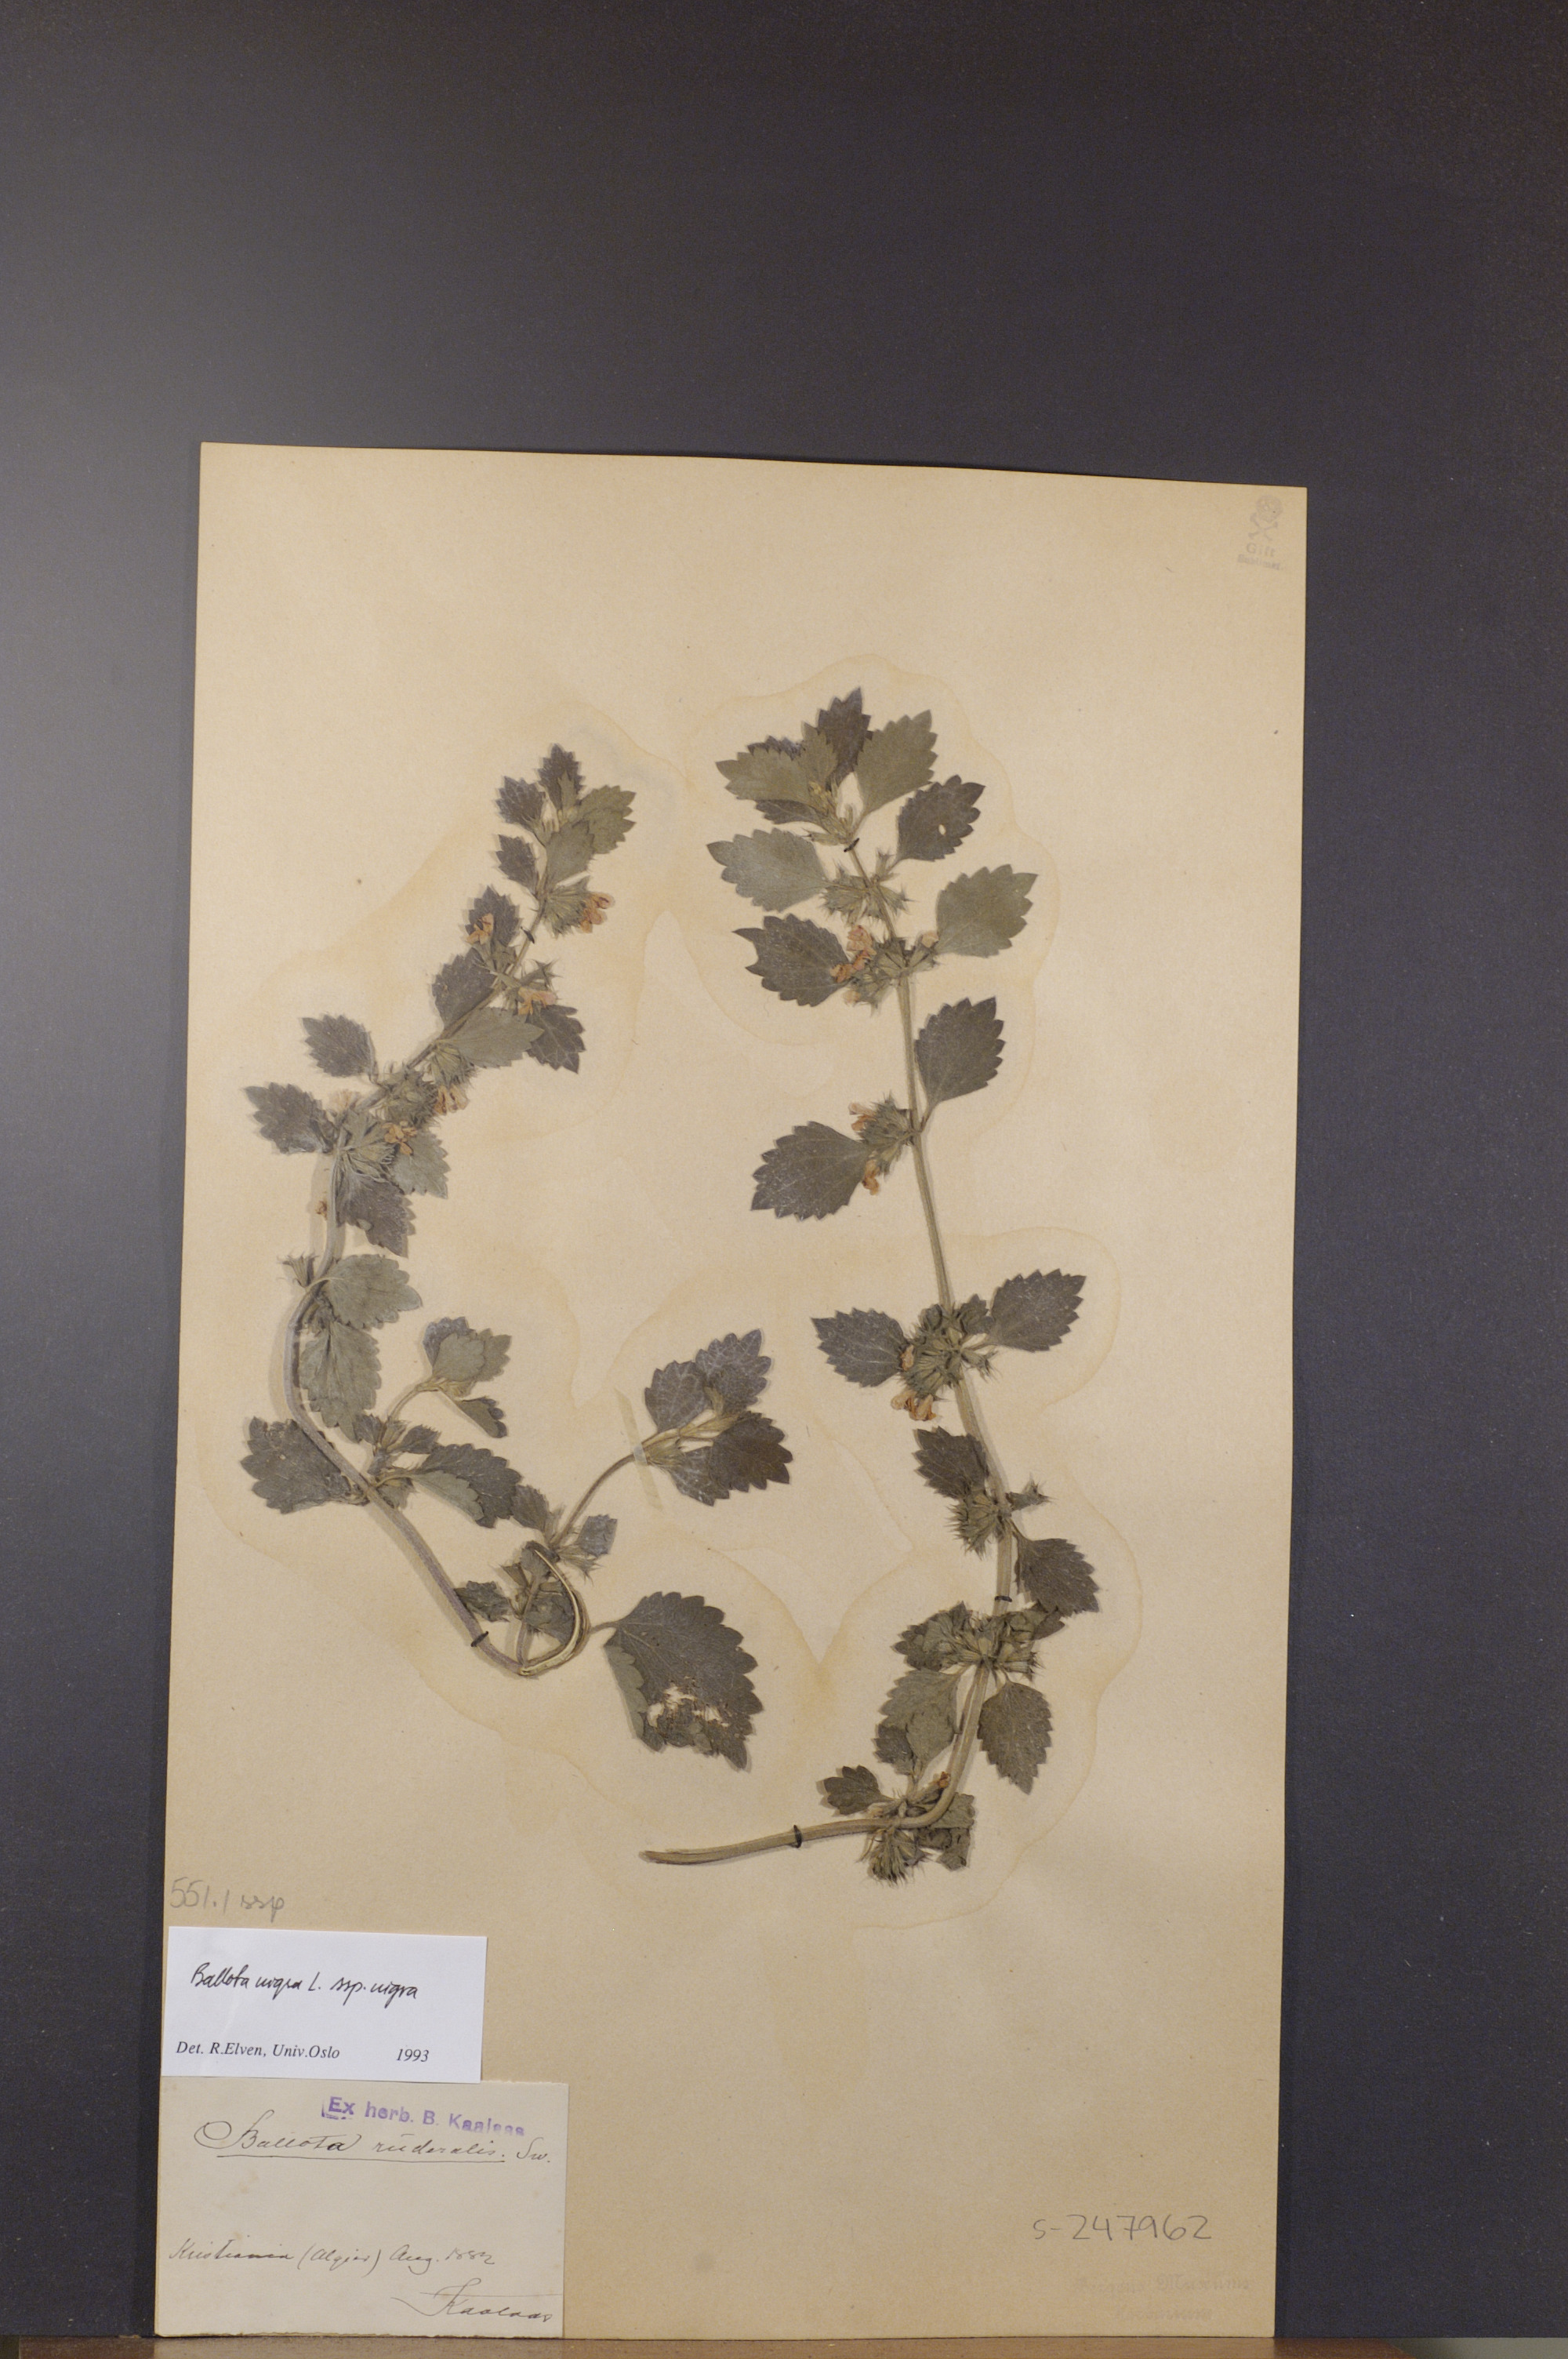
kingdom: Plantae
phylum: Tracheophyta
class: Magnoliopsida
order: Lamiales
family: Lamiaceae
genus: Ballota
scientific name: Ballota nigra
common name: Black horehound
